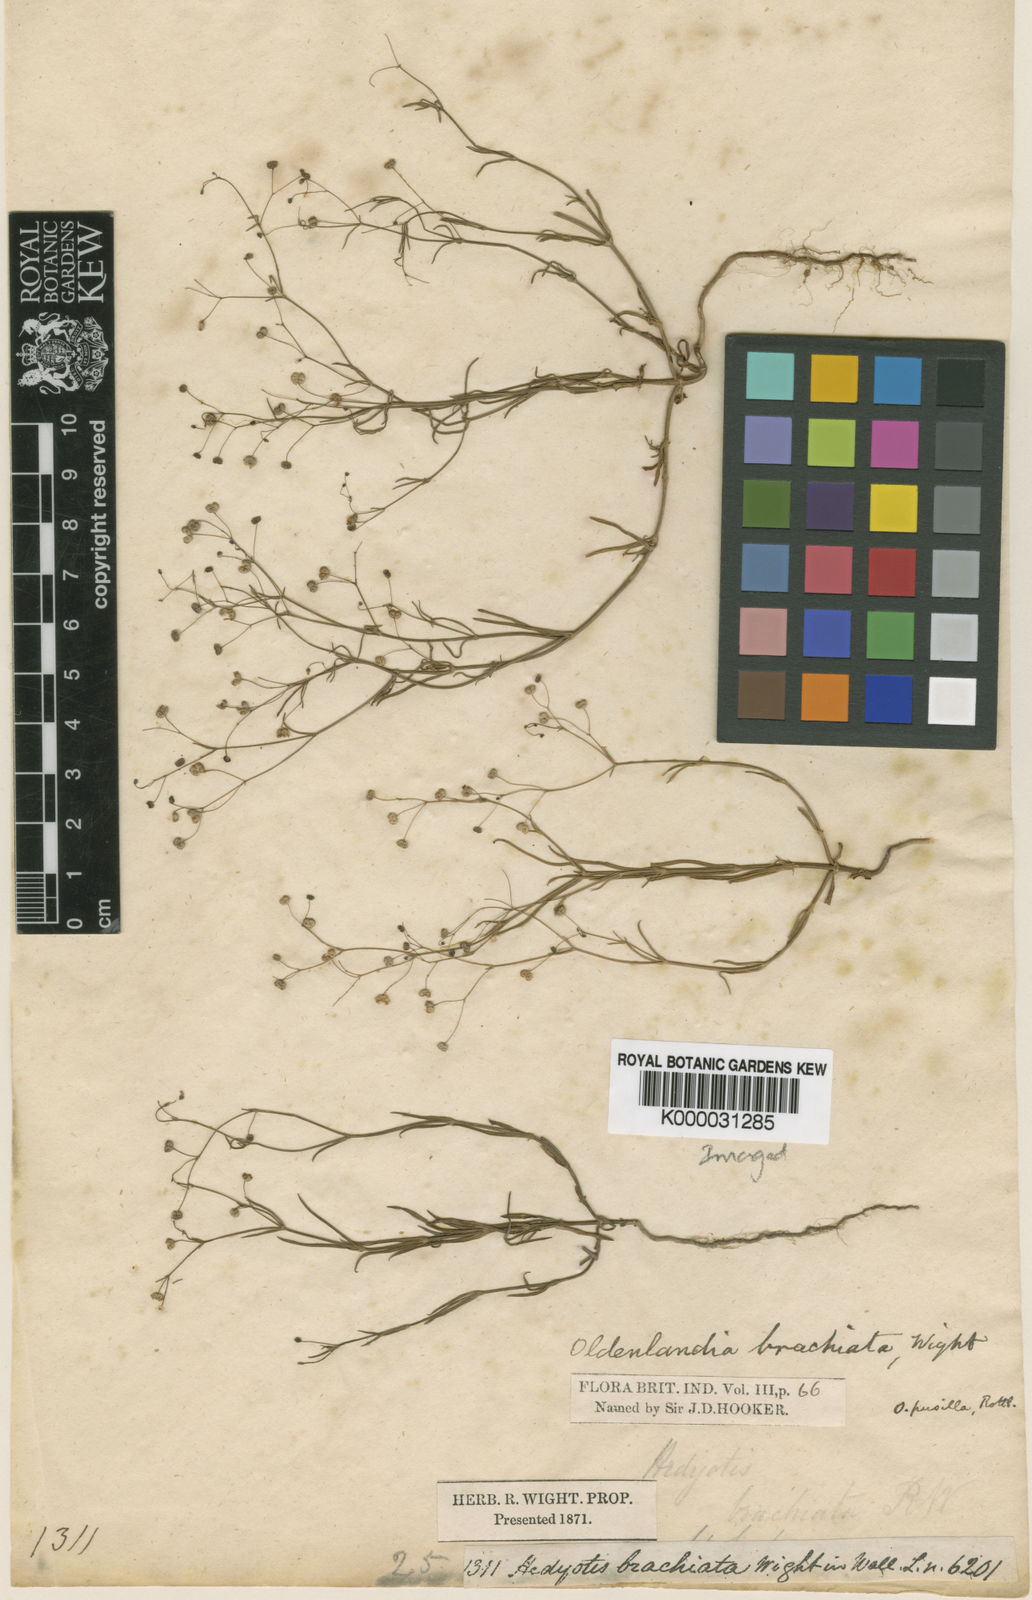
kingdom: Plantae
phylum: Tracheophyta
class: Magnoliopsida
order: Gentianales
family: Rubiaceae
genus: Kohautia
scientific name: Kohautia aspera
